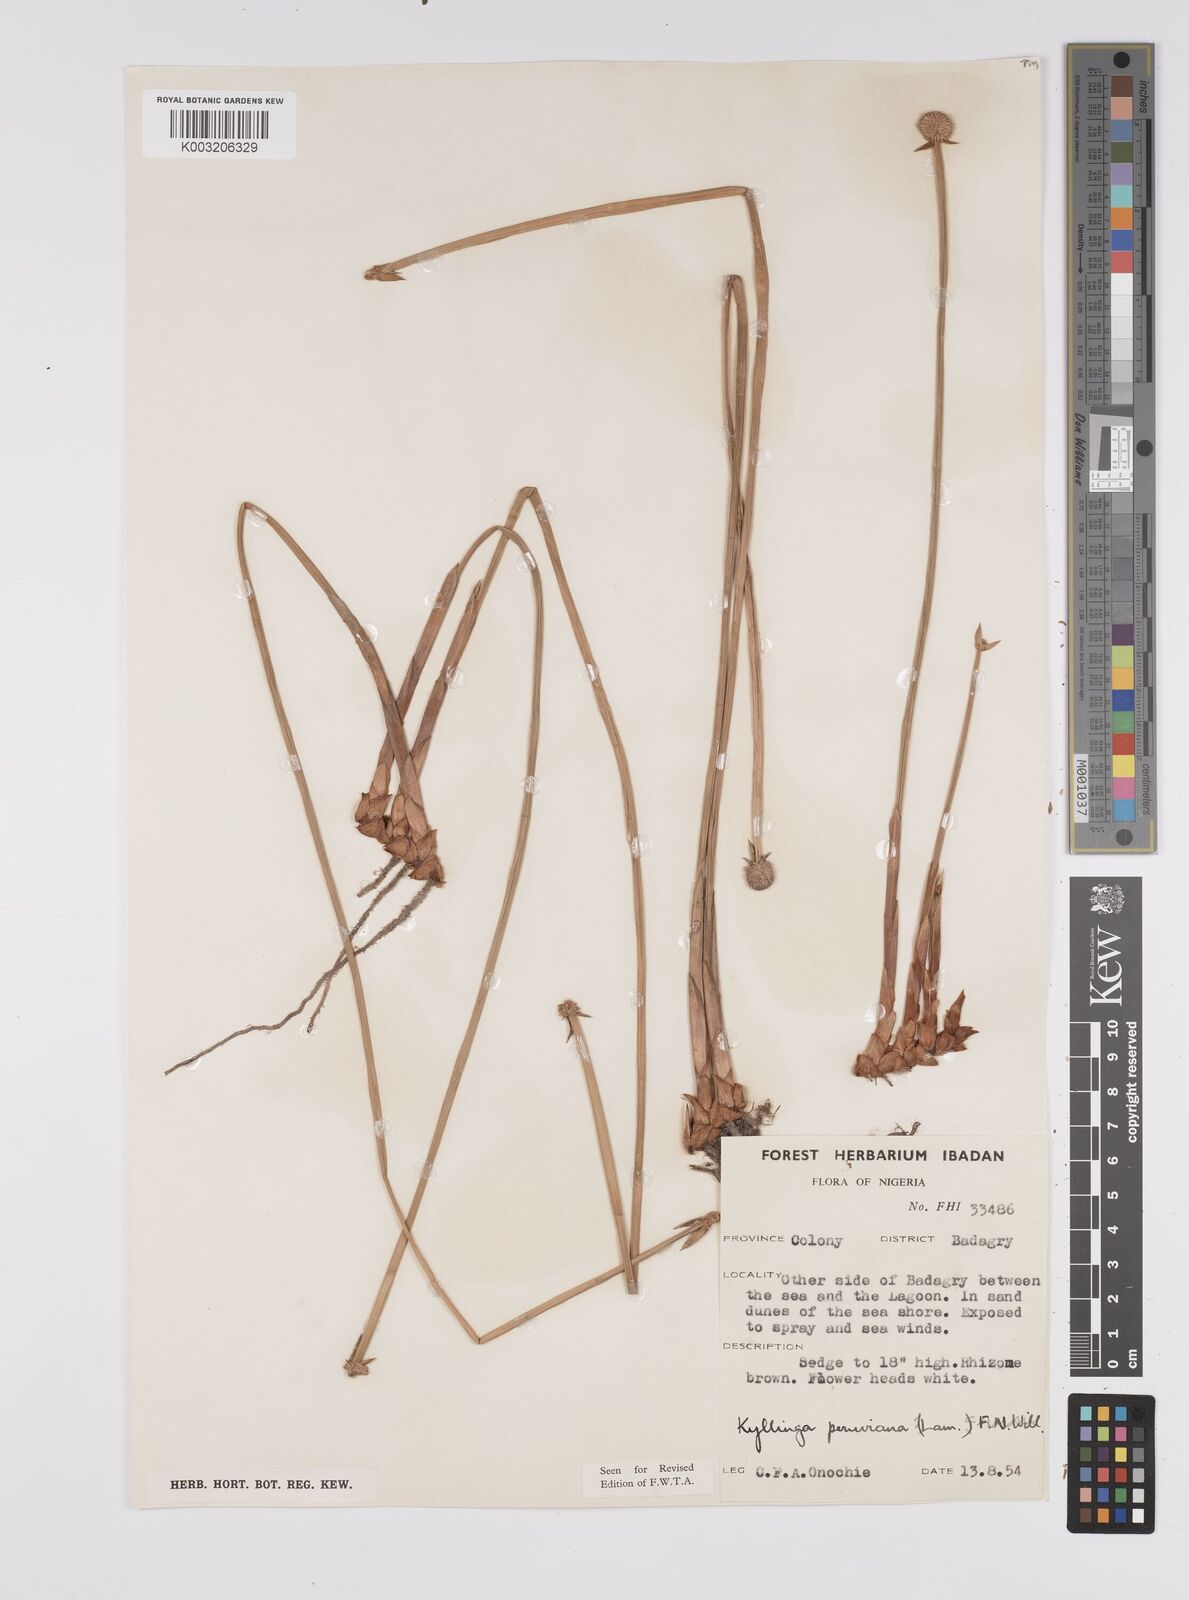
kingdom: Plantae
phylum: Tracheophyta
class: Liliopsida
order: Poales
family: Cyperaceae
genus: Cyperus
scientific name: Cyperus
